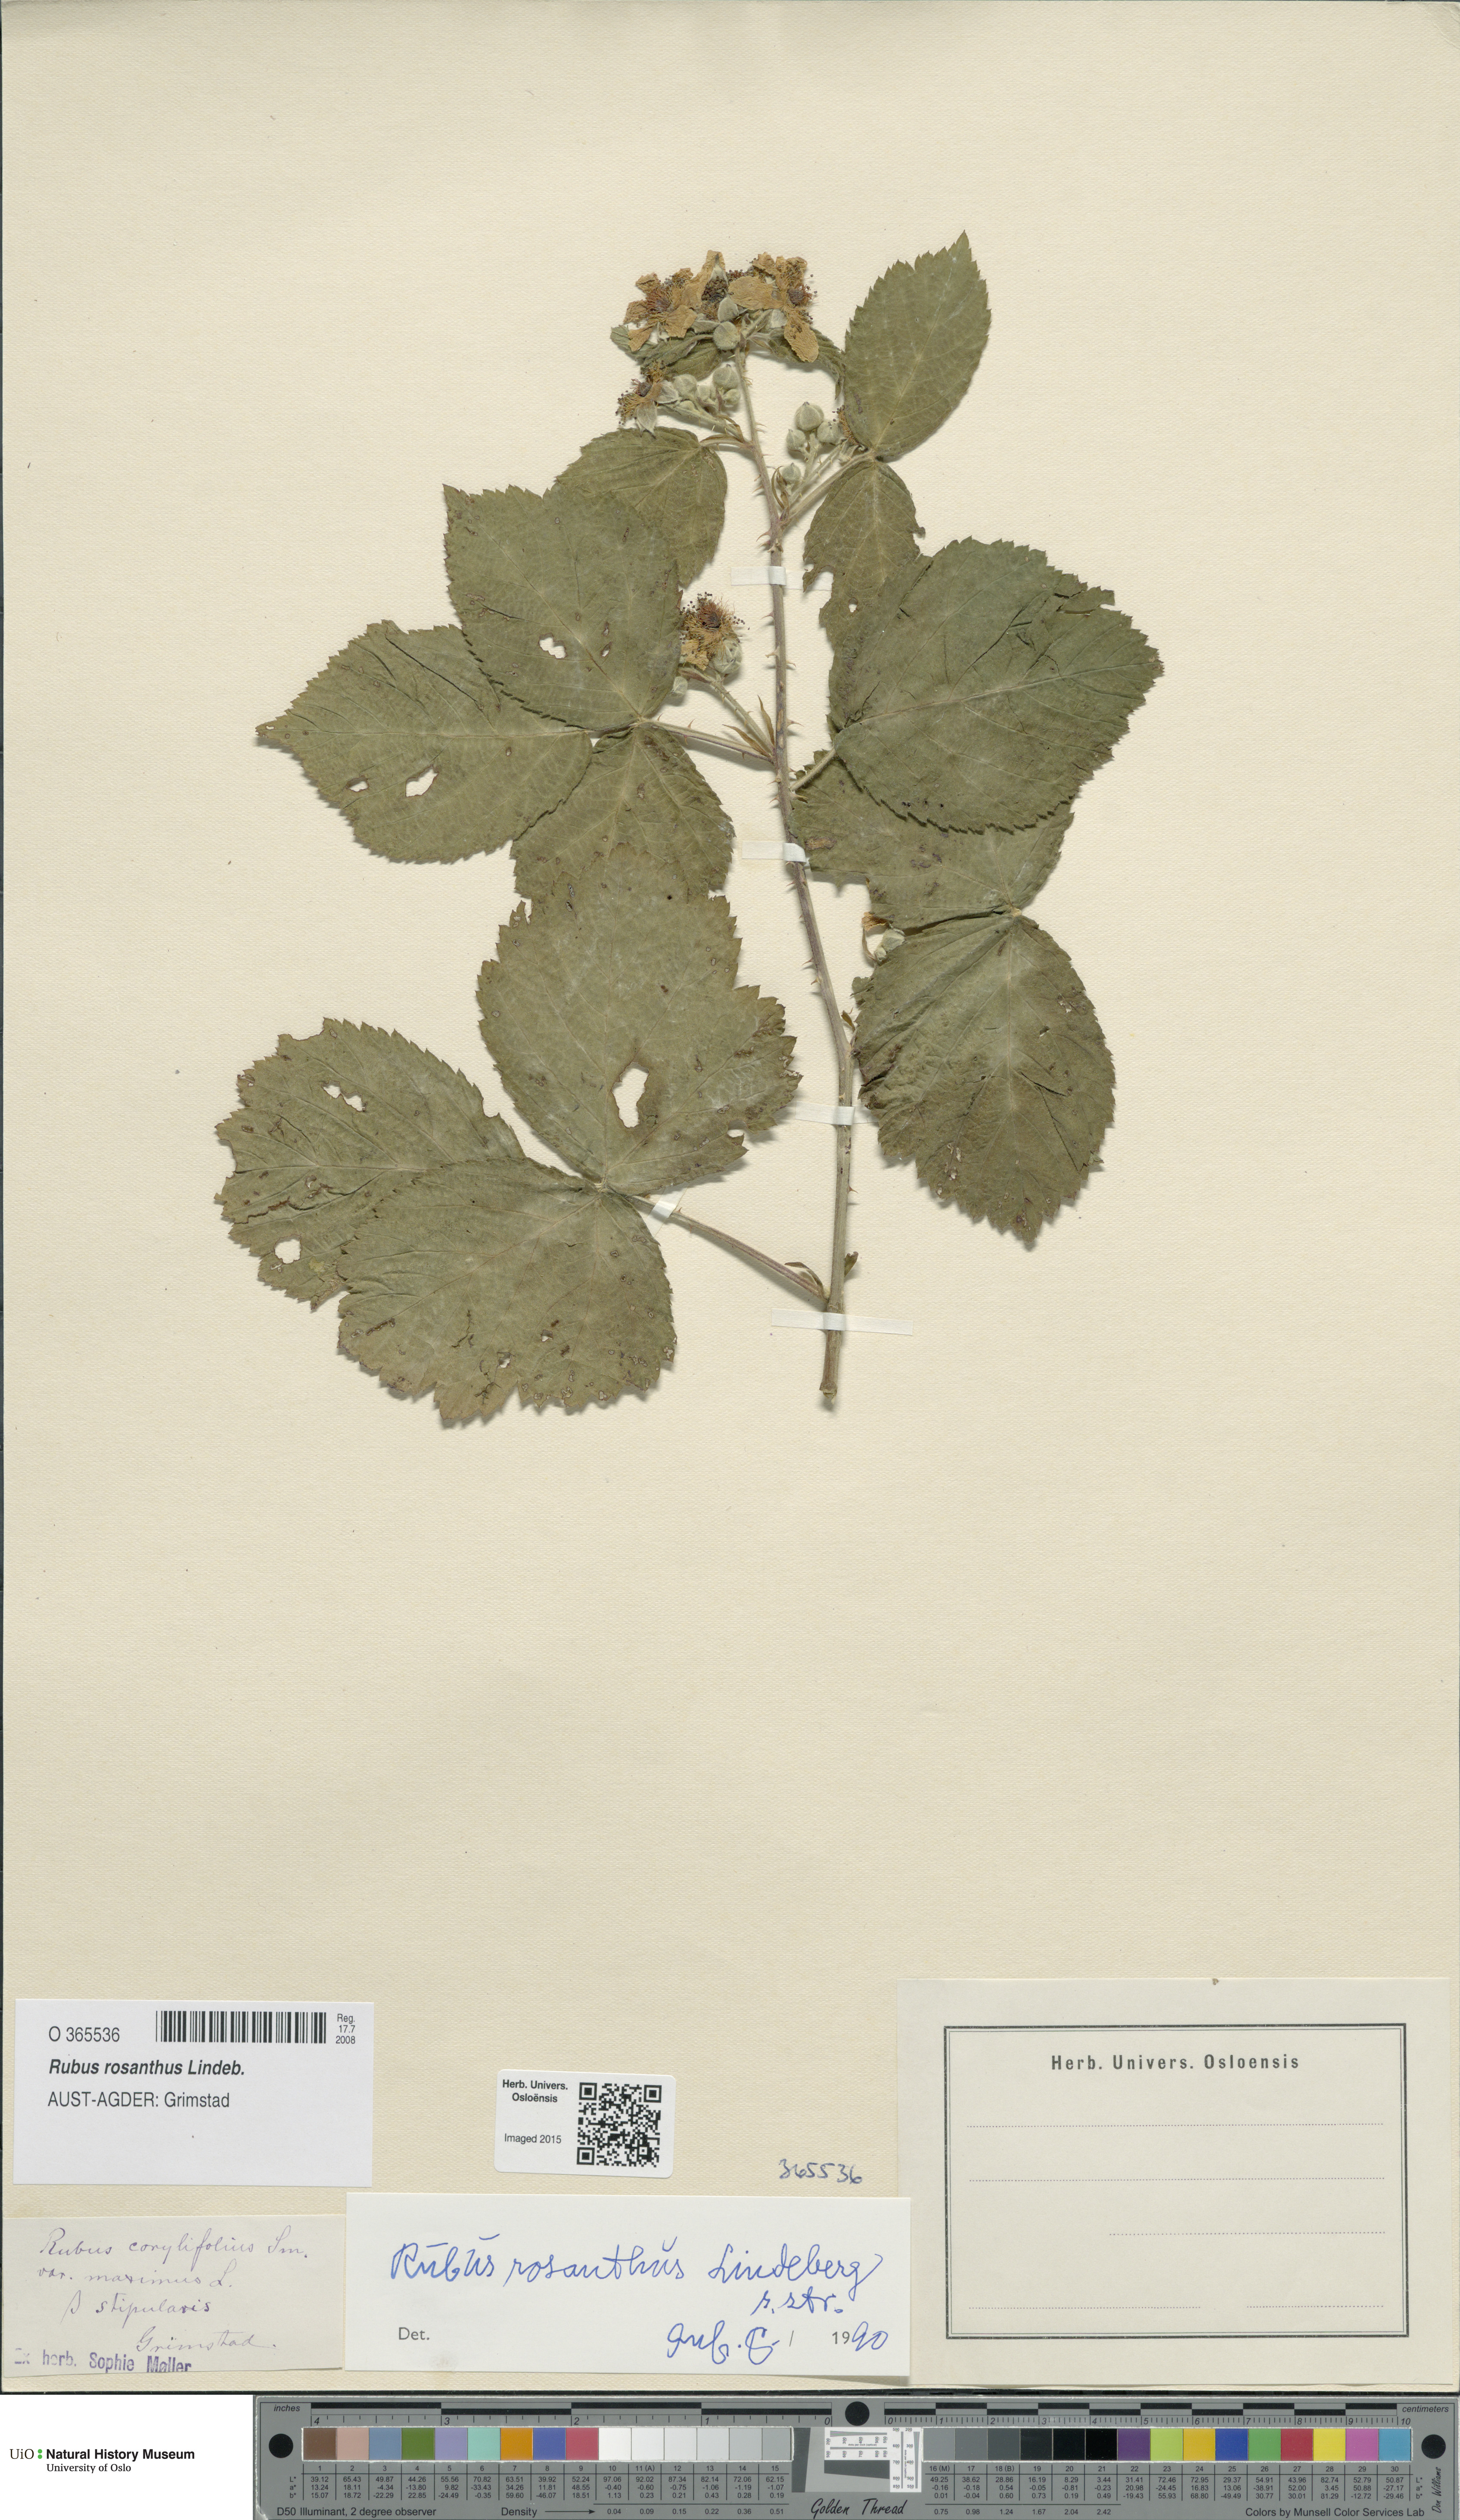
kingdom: Plantae
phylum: Tracheophyta
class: Magnoliopsida
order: Rosales
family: Rosaceae
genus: Rubus
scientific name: Rubus rosanthus
